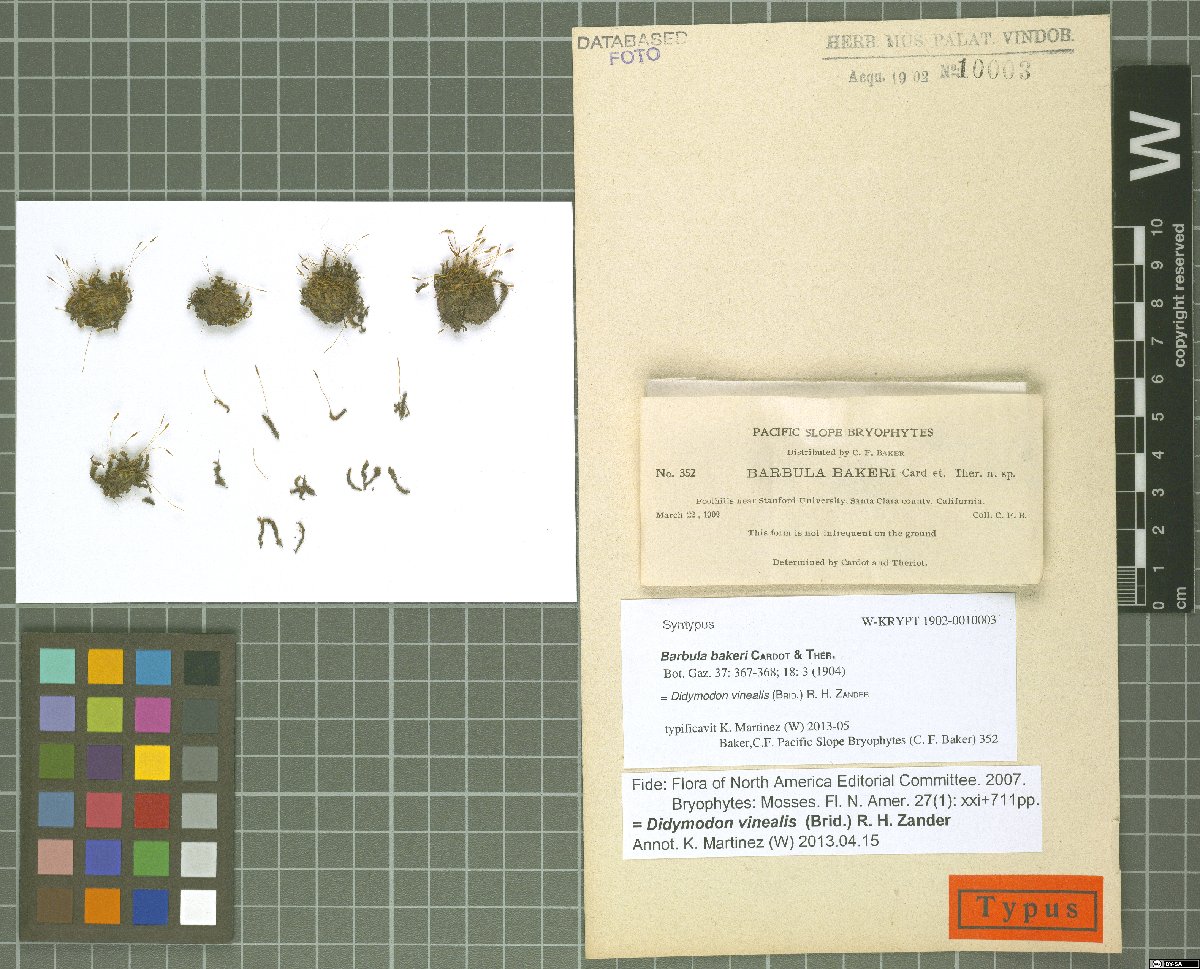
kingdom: Plantae
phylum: Bryophyta
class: Bryopsida
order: Pottiales
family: Pottiaceae
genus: Vinealobryum
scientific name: Vinealobryum vineale
